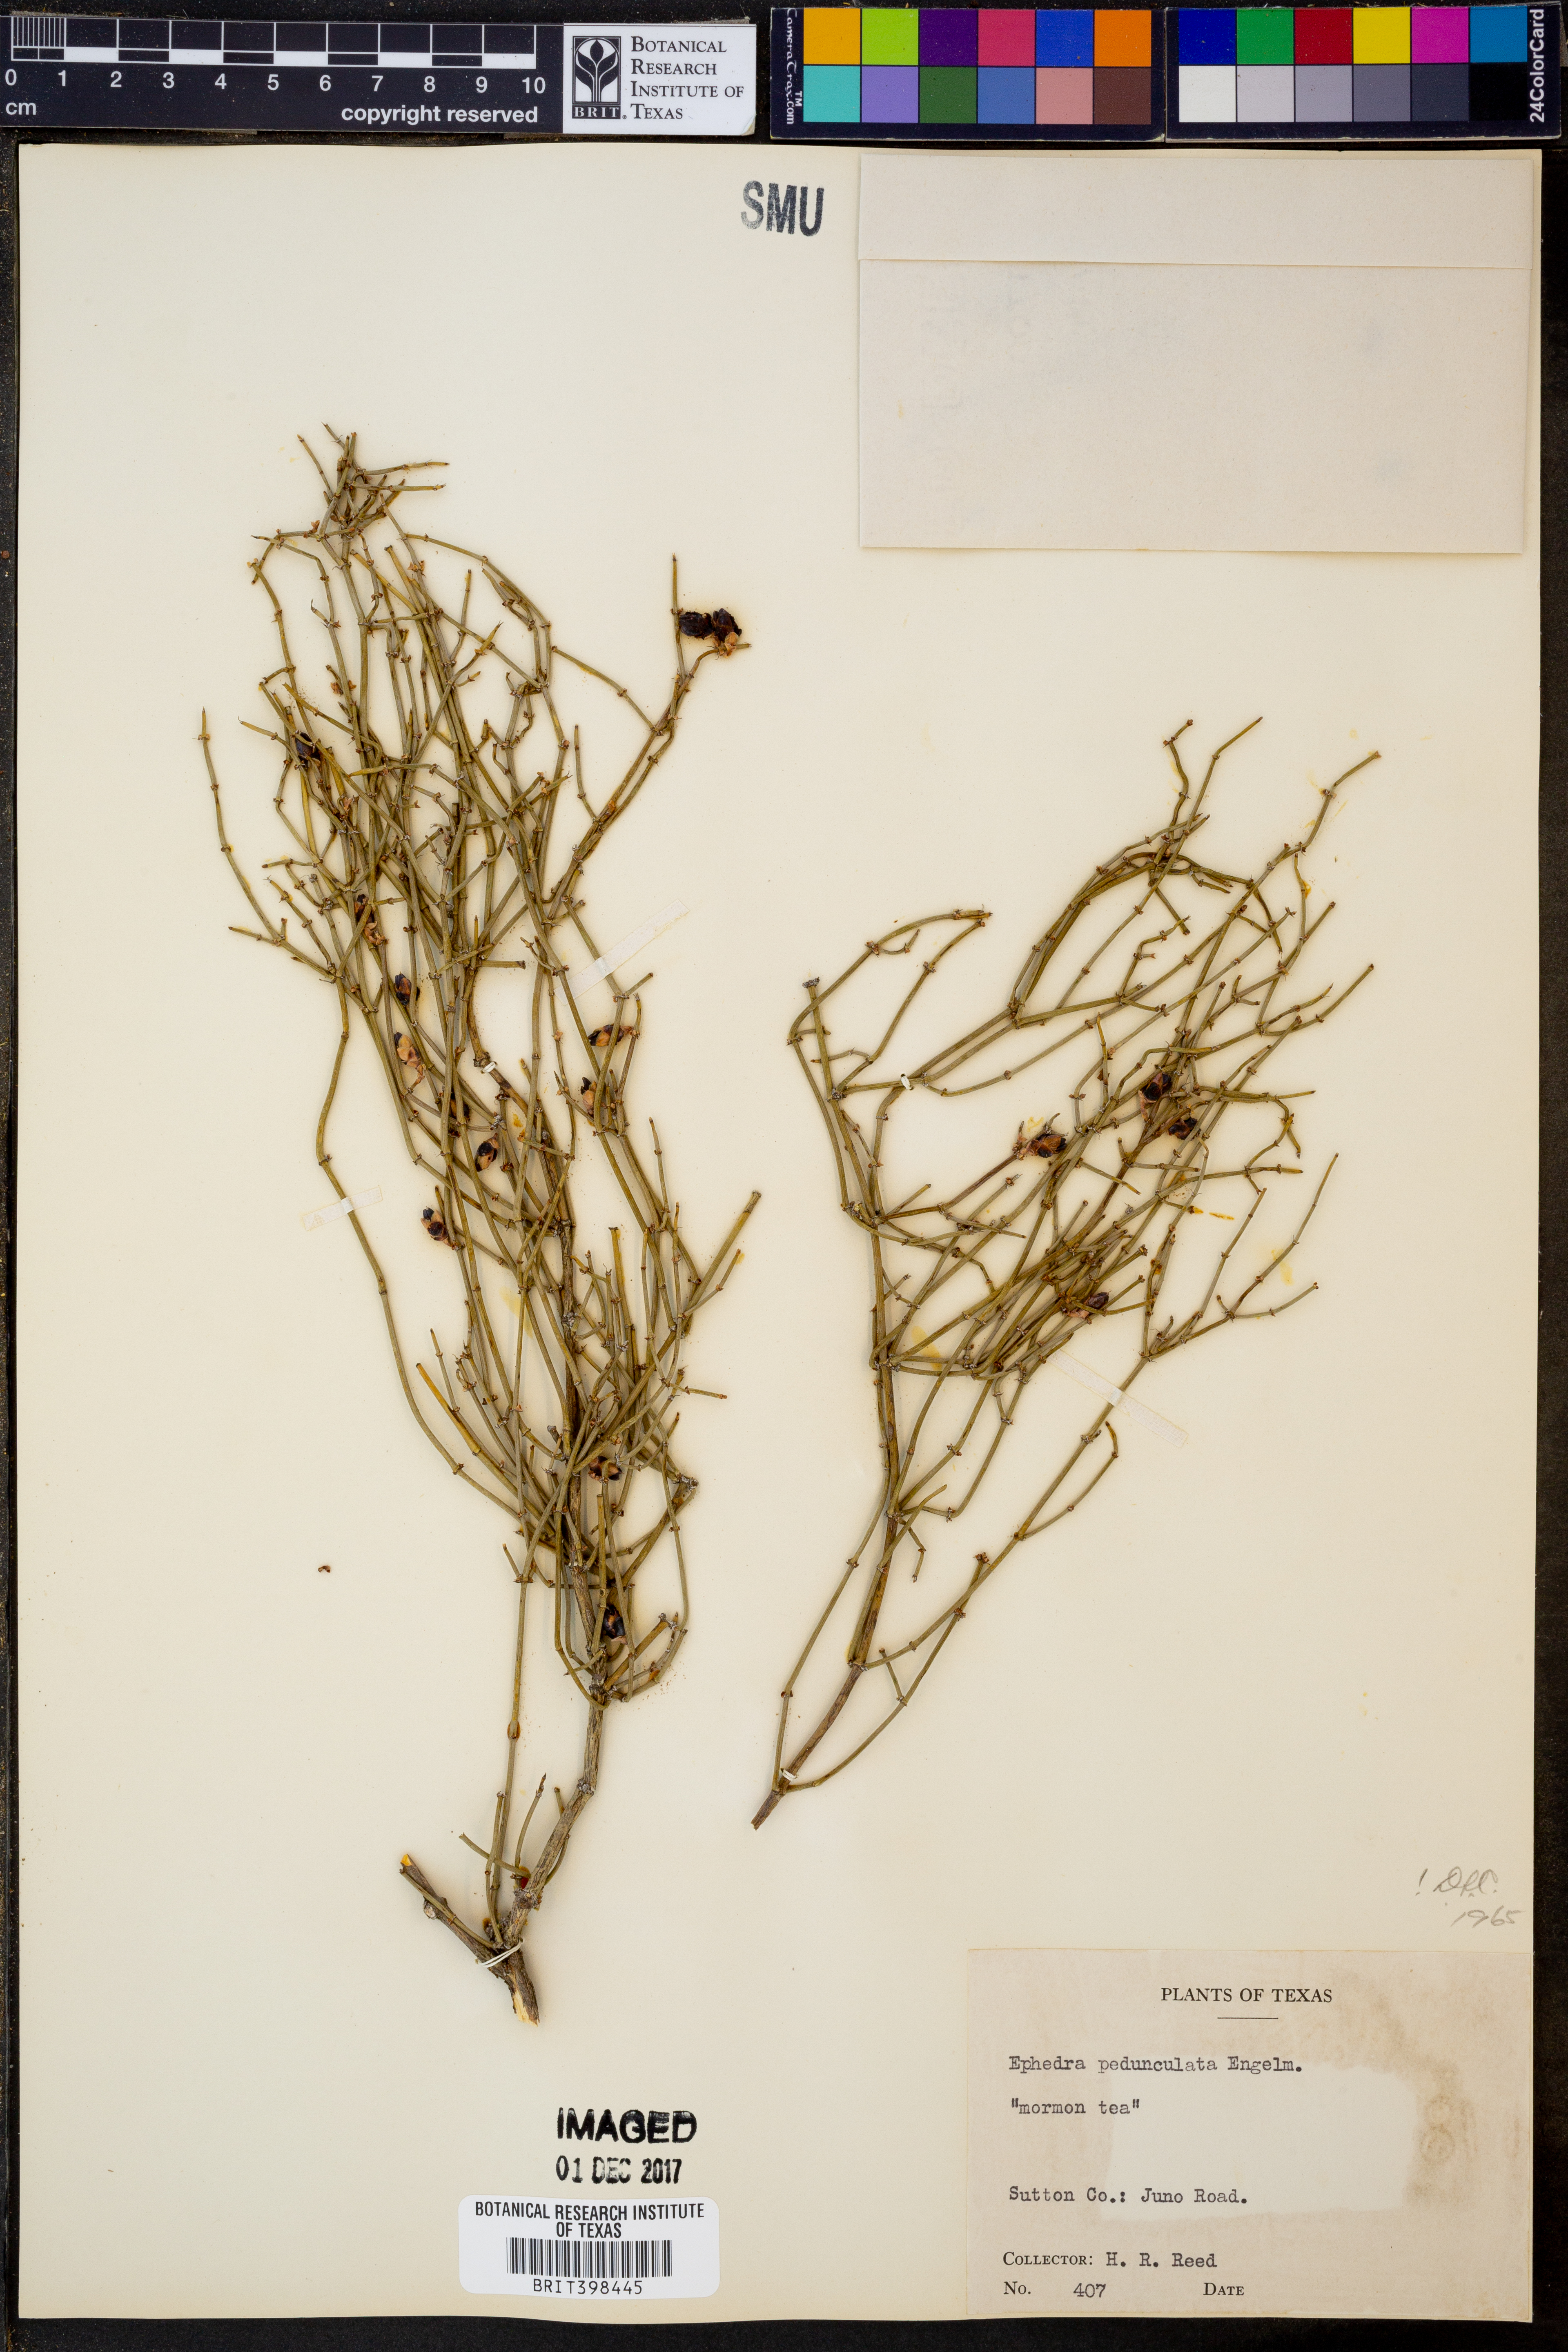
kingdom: Plantae
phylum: Tracheophyta
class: Gnetopsida
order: Ephedrales
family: Ephedraceae
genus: Ephedra
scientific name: Ephedra pedunculata
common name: Vine ephedra
